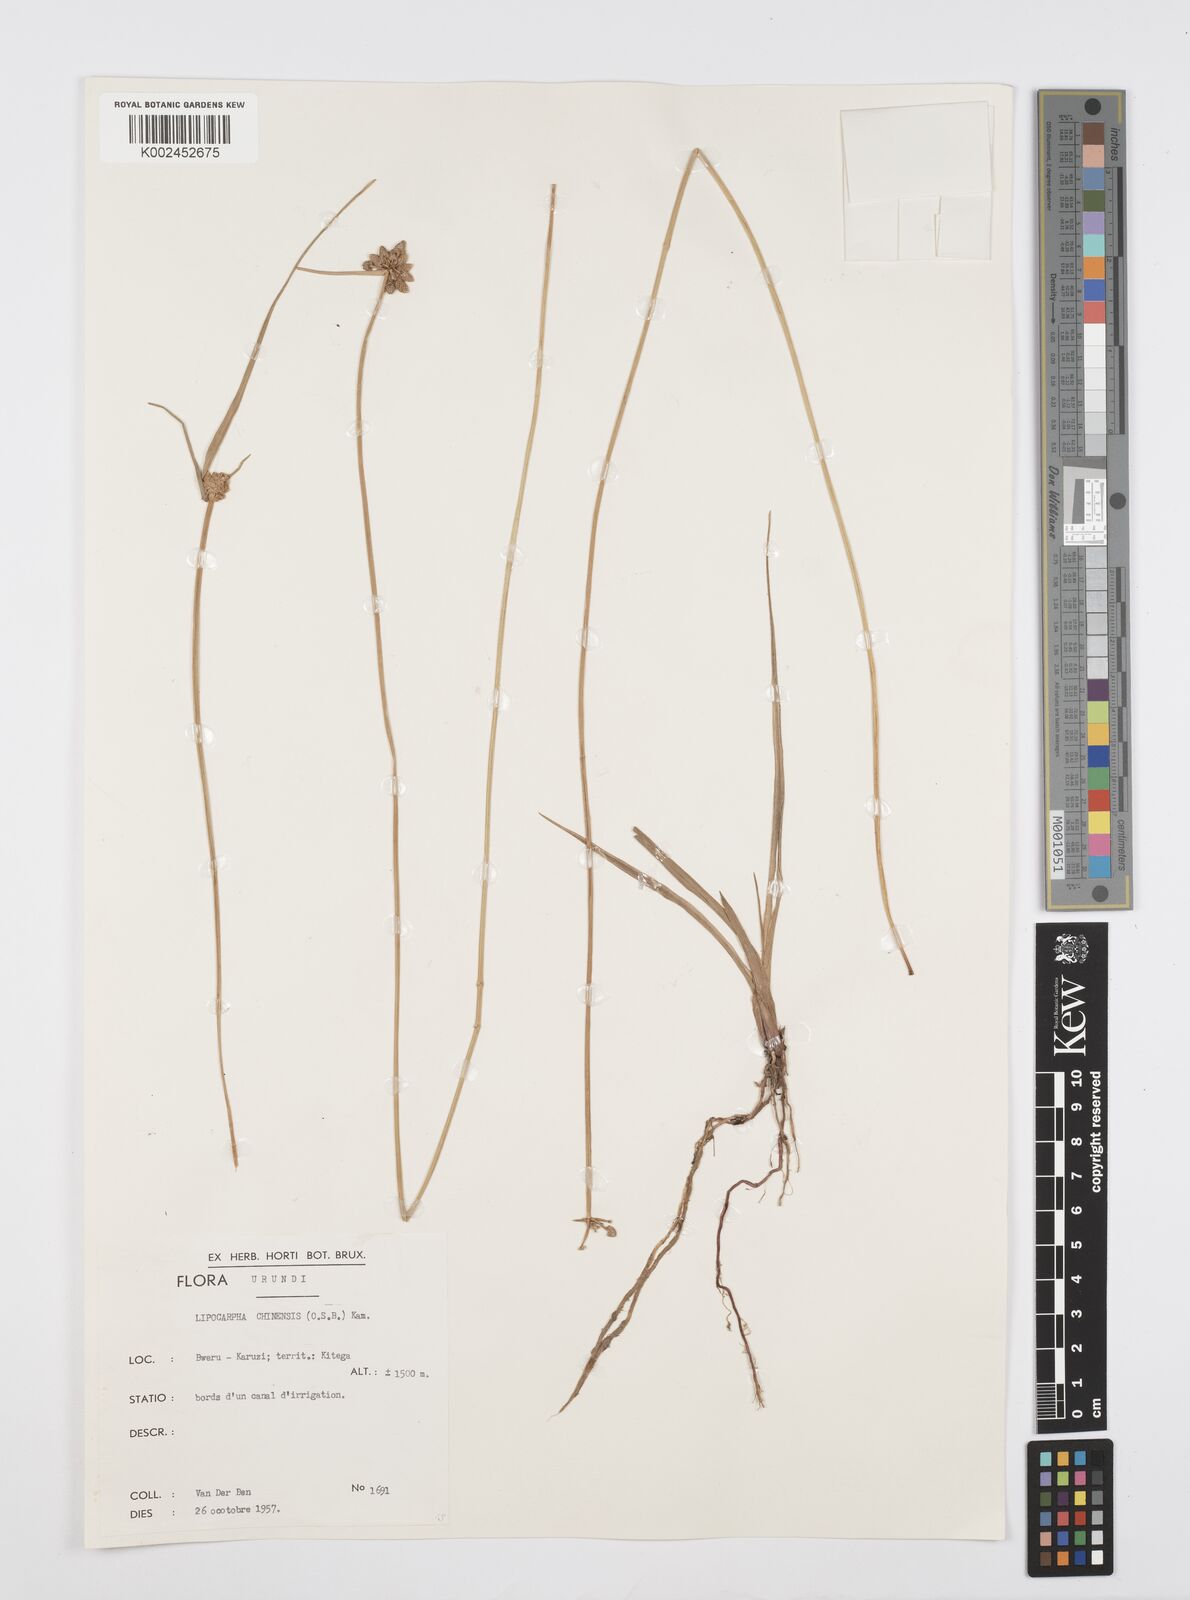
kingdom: Plantae
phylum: Tracheophyta
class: Liliopsida
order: Poales
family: Cyperaceae
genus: Cyperus
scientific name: Cyperus albescens
